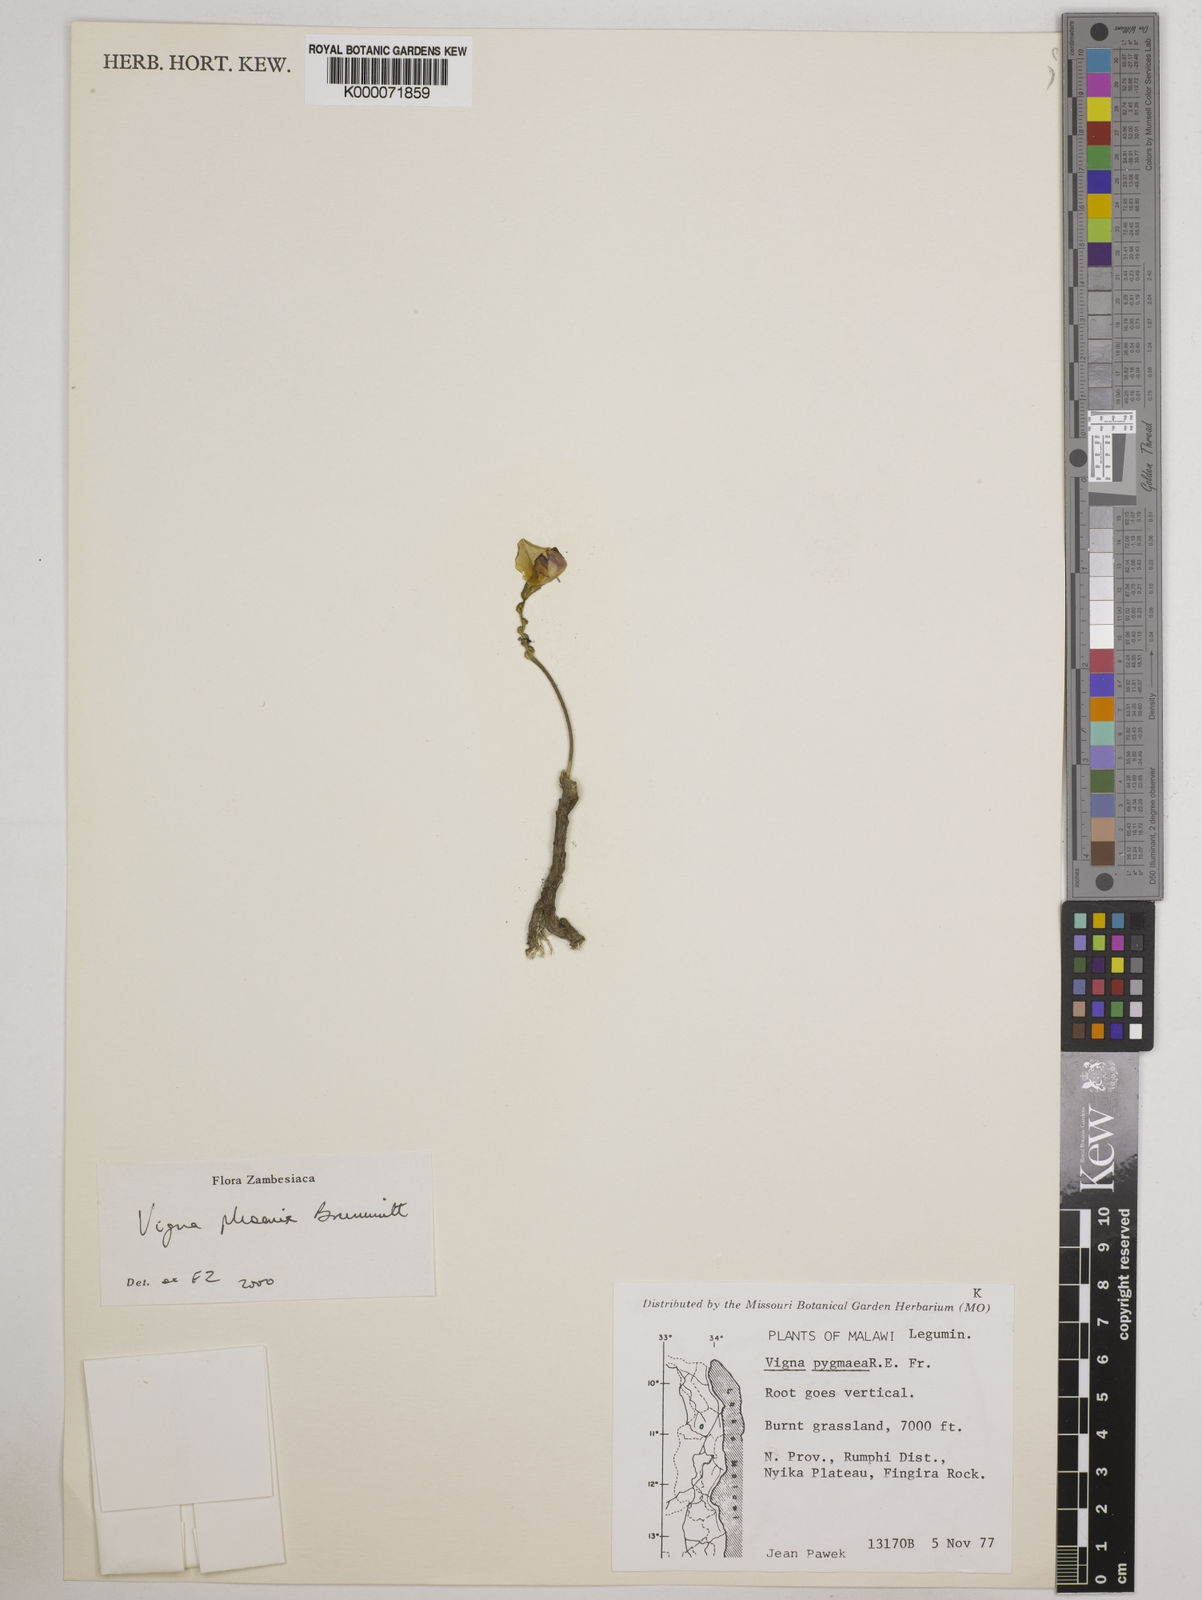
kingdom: Plantae
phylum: Tracheophyta
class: Magnoliopsida
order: Fabales
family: Fabaceae
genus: Vigna
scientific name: Vigna phoenix
